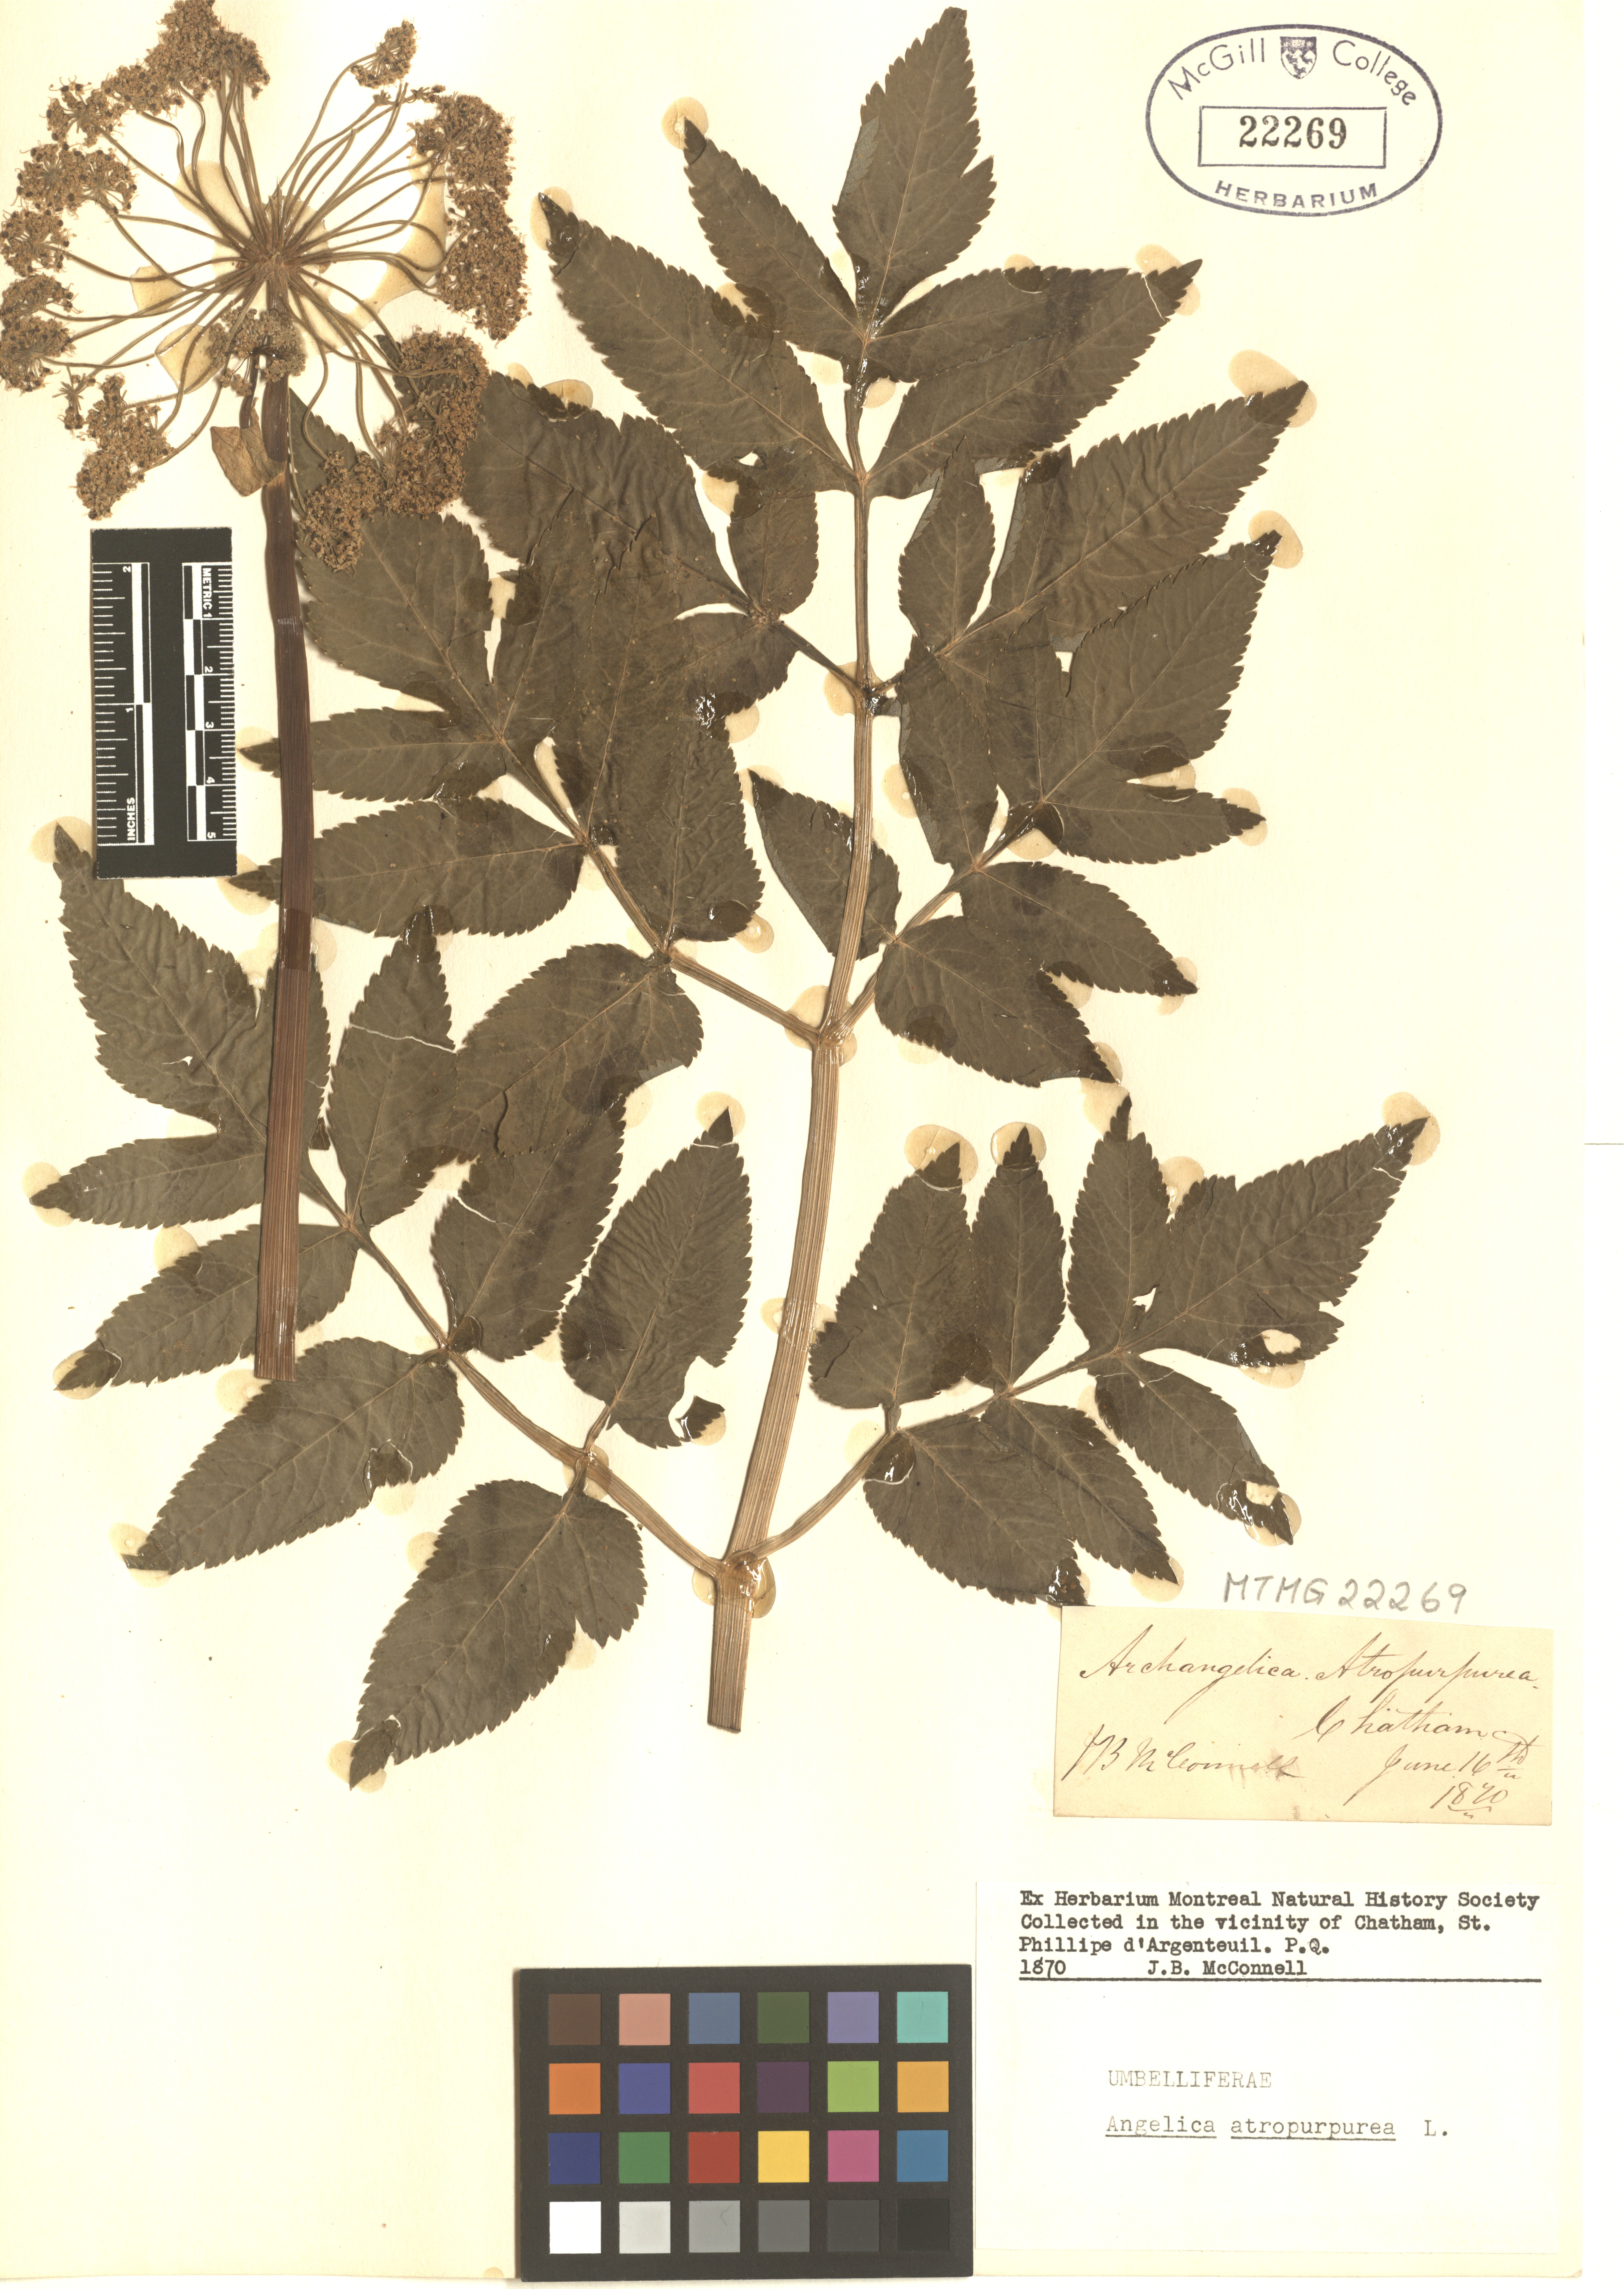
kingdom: Plantae
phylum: Tracheophyta
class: Magnoliopsida
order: Apiales
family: Apiaceae
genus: Angelica
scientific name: Angelica atropurpurea
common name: Great angelica
